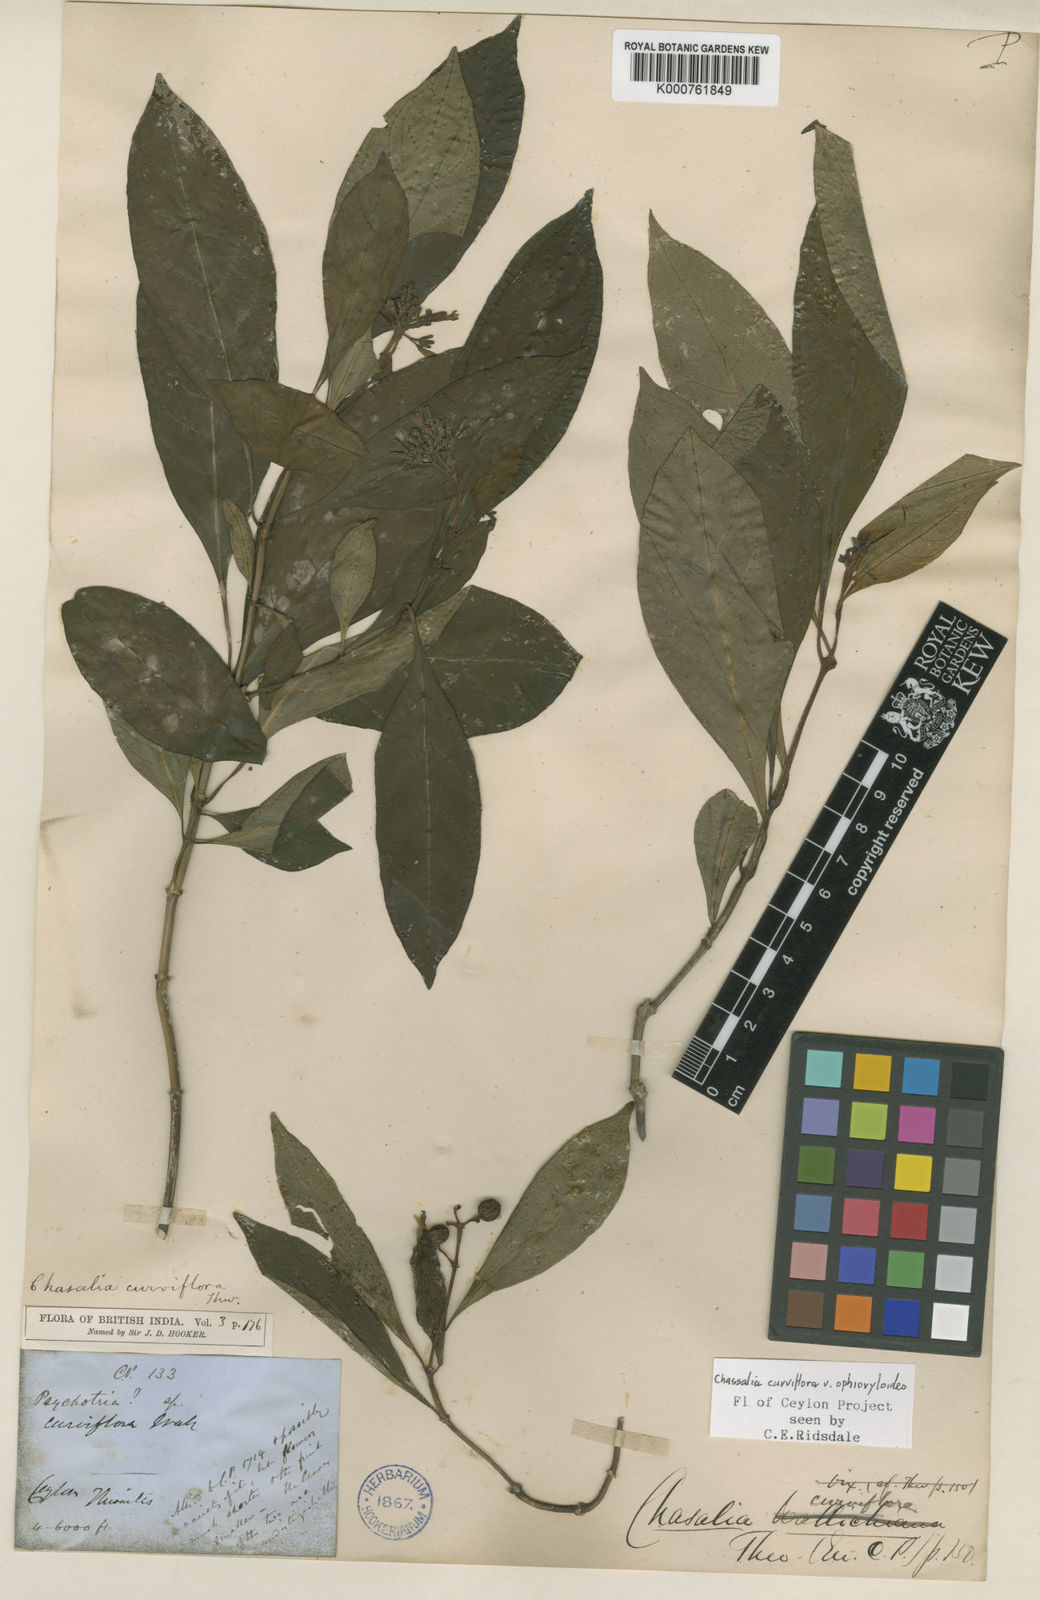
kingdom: Plantae
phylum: Tracheophyta
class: Magnoliopsida
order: Gentianales
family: Rubiaceae
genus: Chassalia
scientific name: Chassalia curviflora
